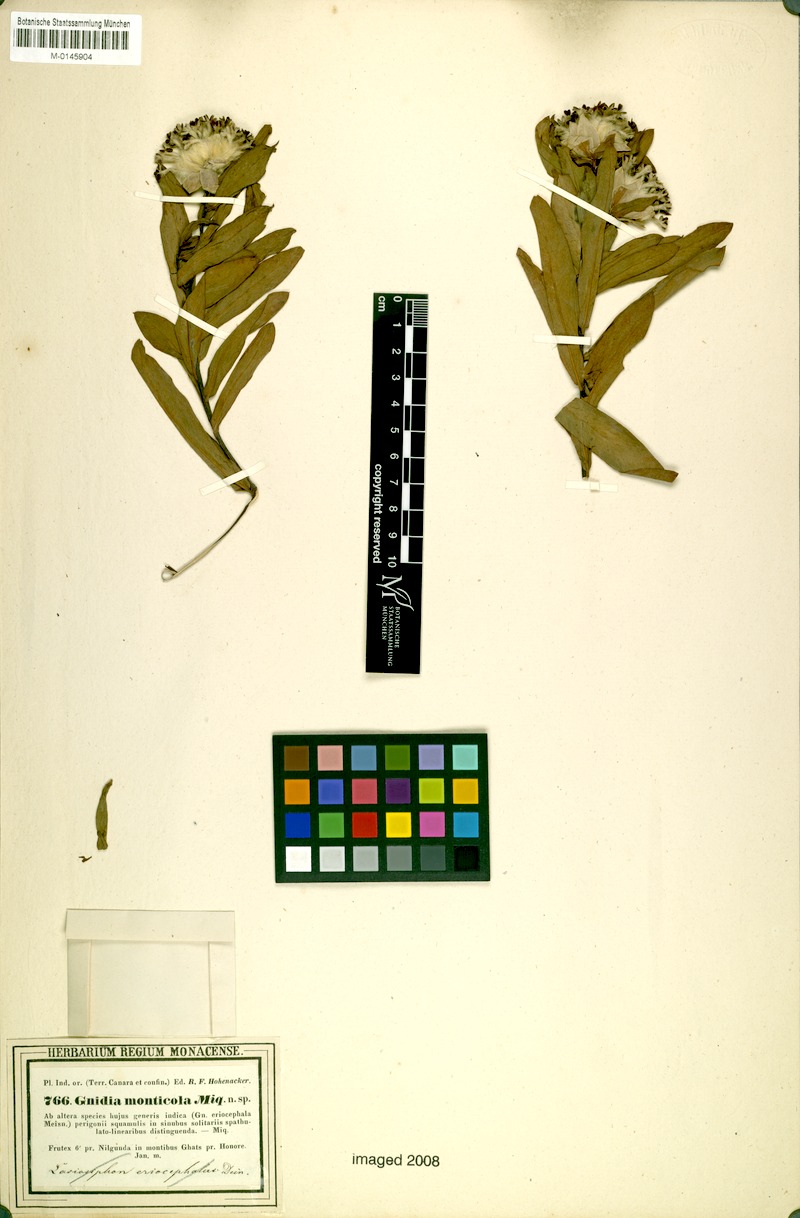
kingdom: Plantae
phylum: Tracheophyta
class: Magnoliopsida
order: Malvales
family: Thymelaeaceae
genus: Gnidia
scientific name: Gnidia glauca
